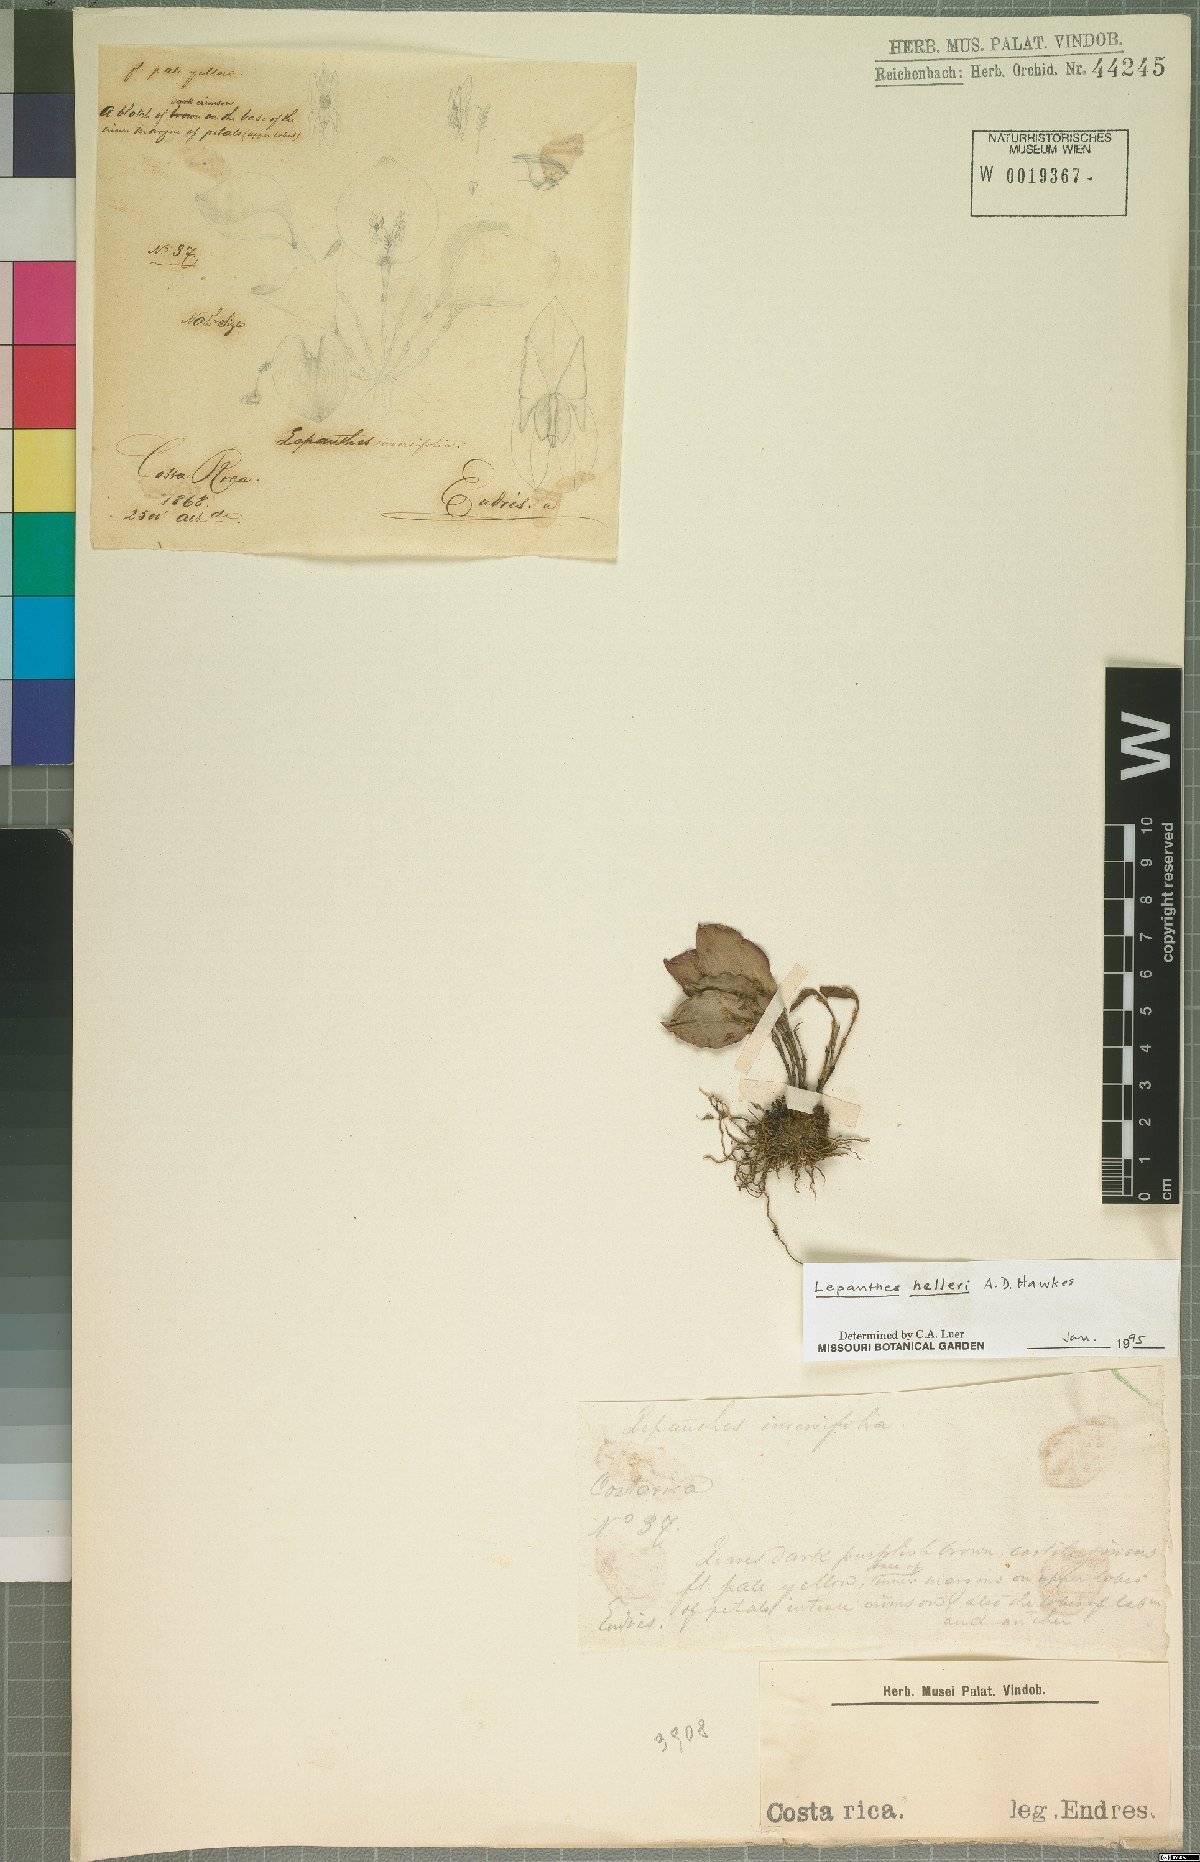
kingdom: Plantae
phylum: Tracheophyta
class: Liliopsida
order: Asparagales
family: Orchidaceae
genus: Lepanthes
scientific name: Lepanthes helleri
